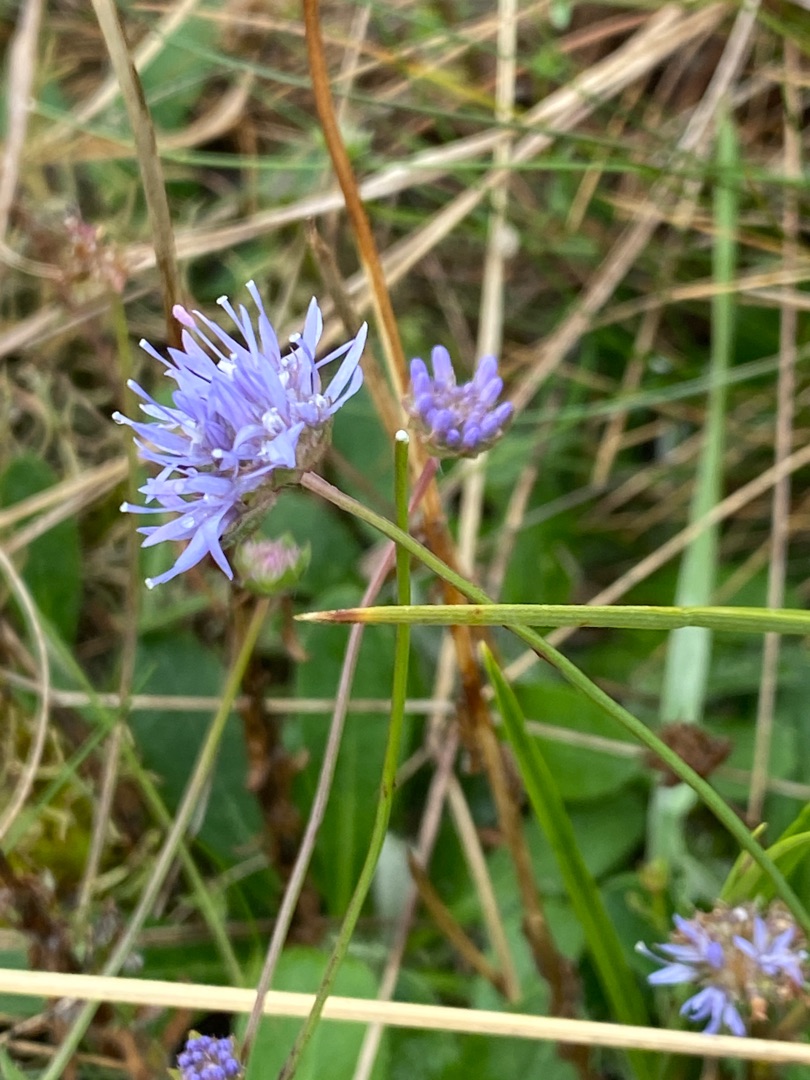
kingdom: Plantae
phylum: Tracheophyta
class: Magnoliopsida
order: Asterales
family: Campanulaceae
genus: Jasione
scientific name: Jasione montana
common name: Blåmunke
